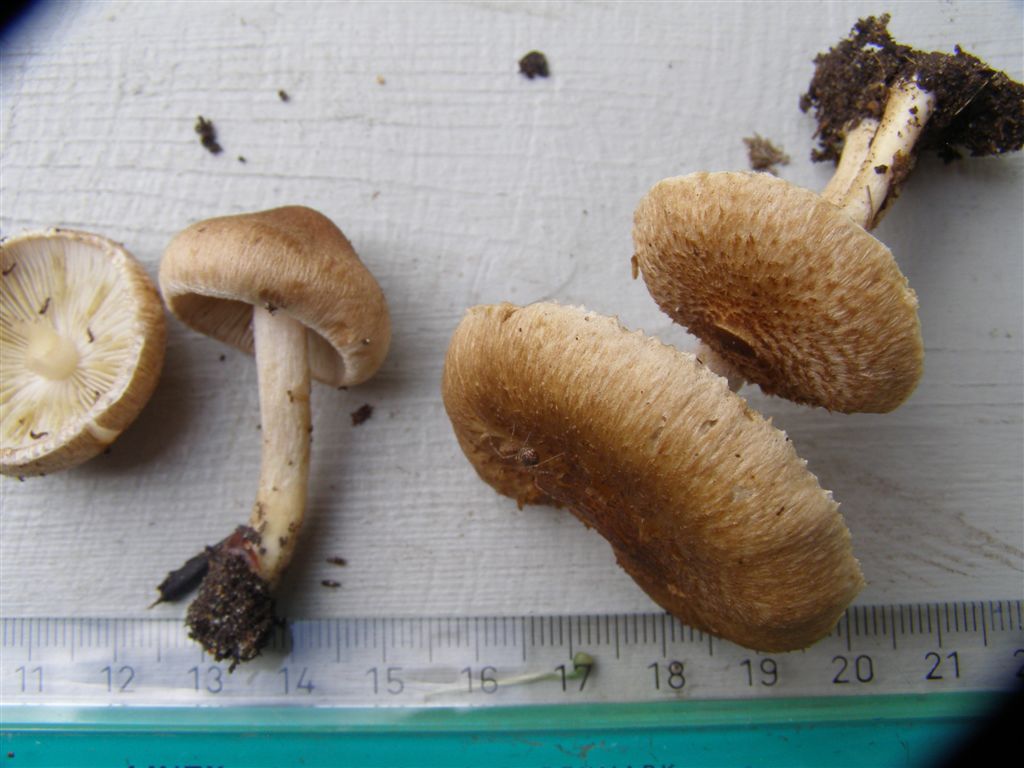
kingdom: Fungi
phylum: Basidiomycota
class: Agaricomycetes
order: Agaricales
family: Inocybaceae
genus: Inocybe
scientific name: Inocybe
